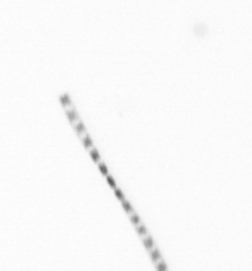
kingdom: Chromista
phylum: Ochrophyta
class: Bacillariophyceae
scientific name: Bacillariophyceae
